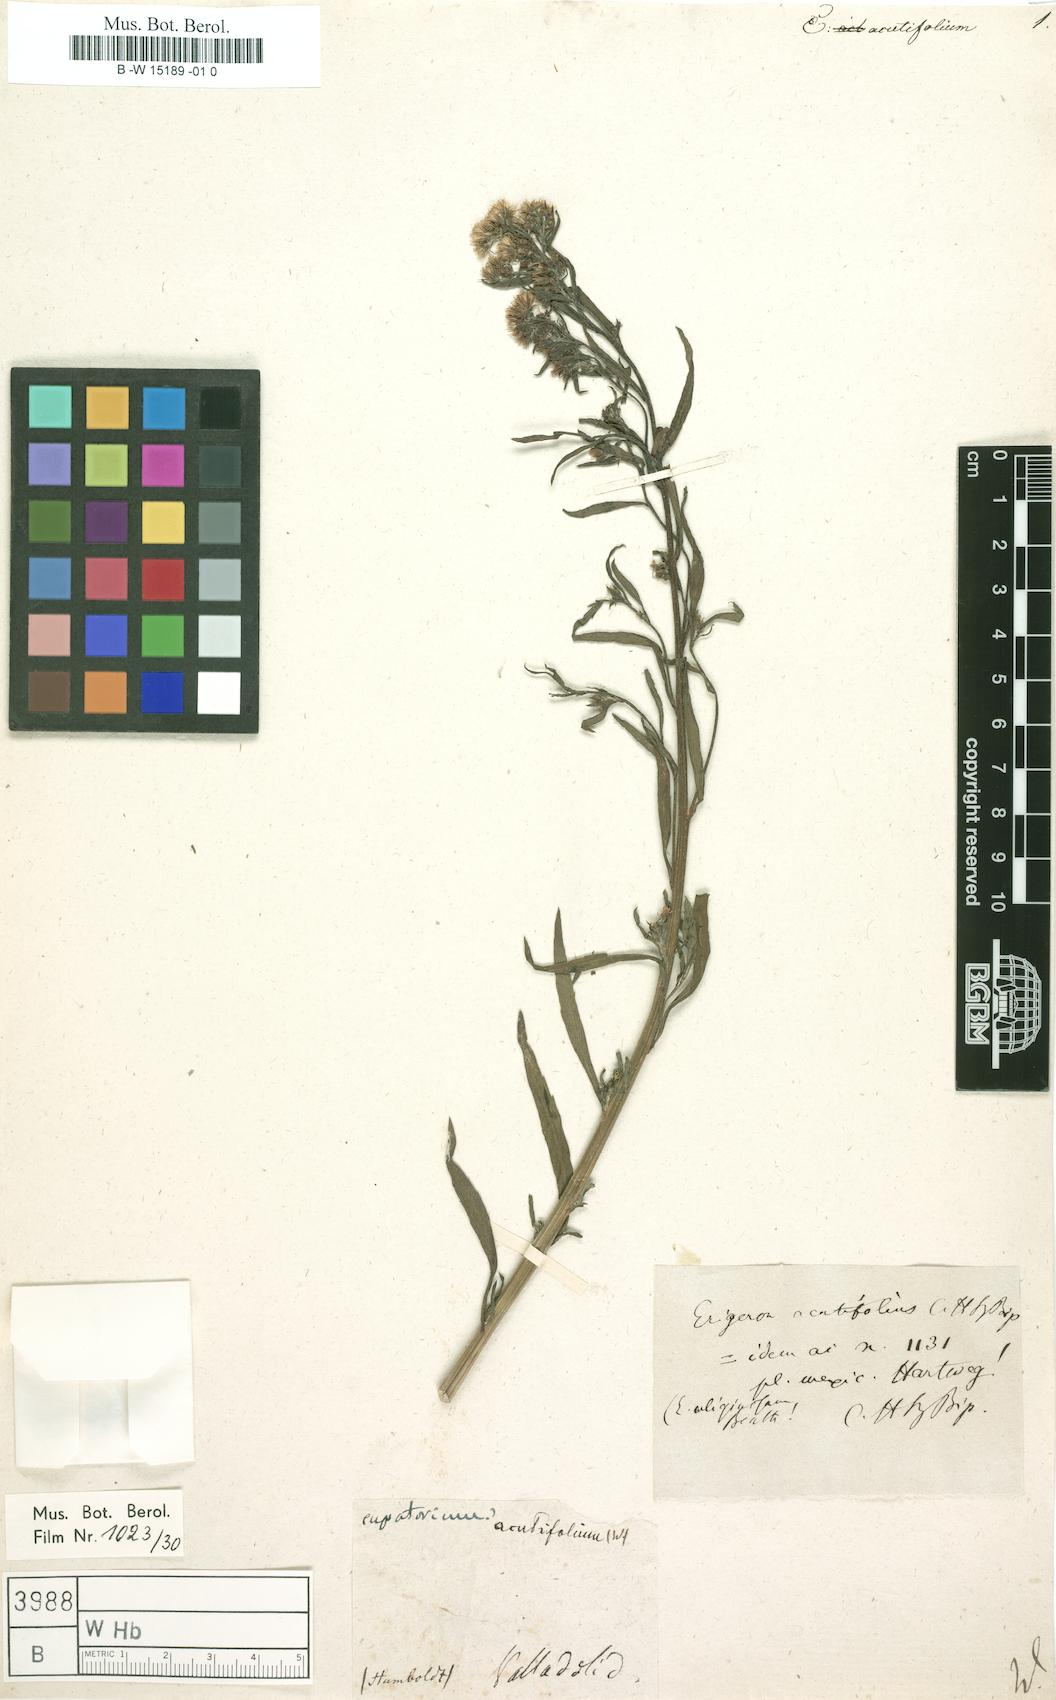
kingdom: Plantae
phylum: Tracheophyta
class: Magnoliopsida
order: Asterales
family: Asteraceae
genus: Eupatorium
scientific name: Eupatorium
